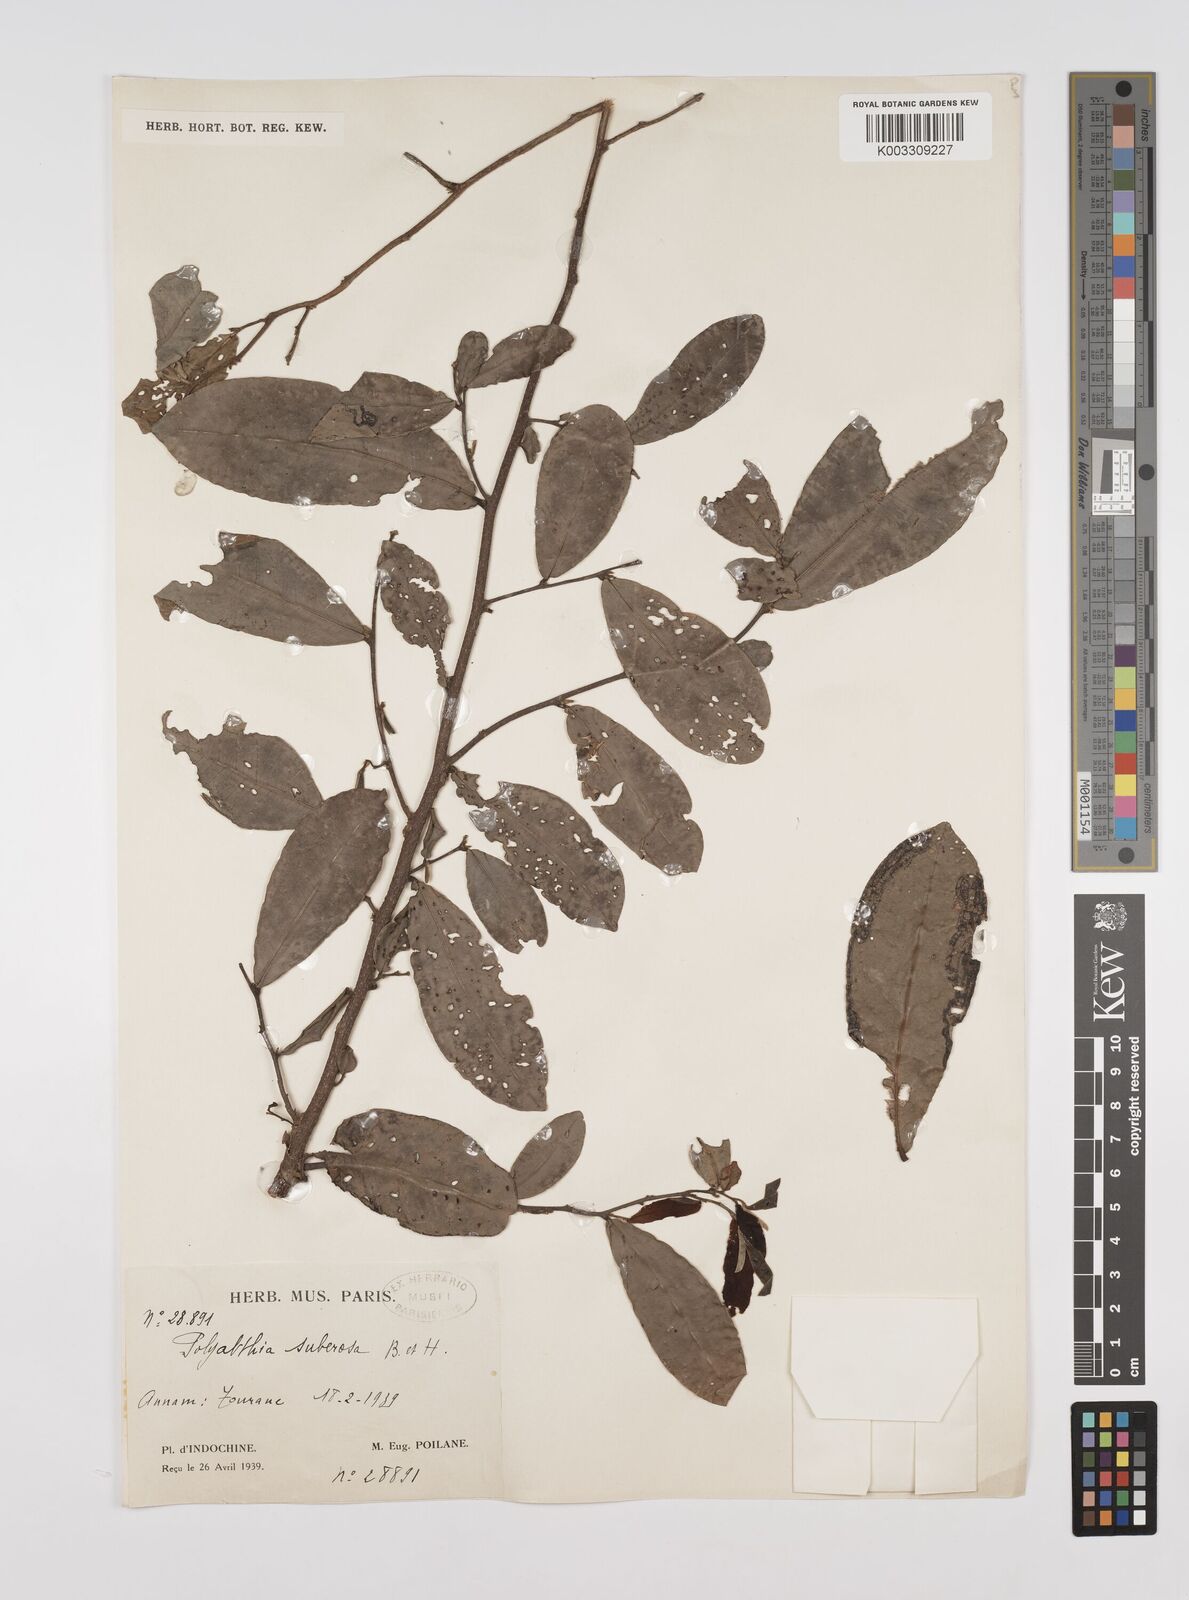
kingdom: Plantae
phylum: Tracheophyta
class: Magnoliopsida
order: Magnoliales
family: Annonaceae
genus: Polyalthia
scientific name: Polyalthia suberosa
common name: Polyalthia plant
